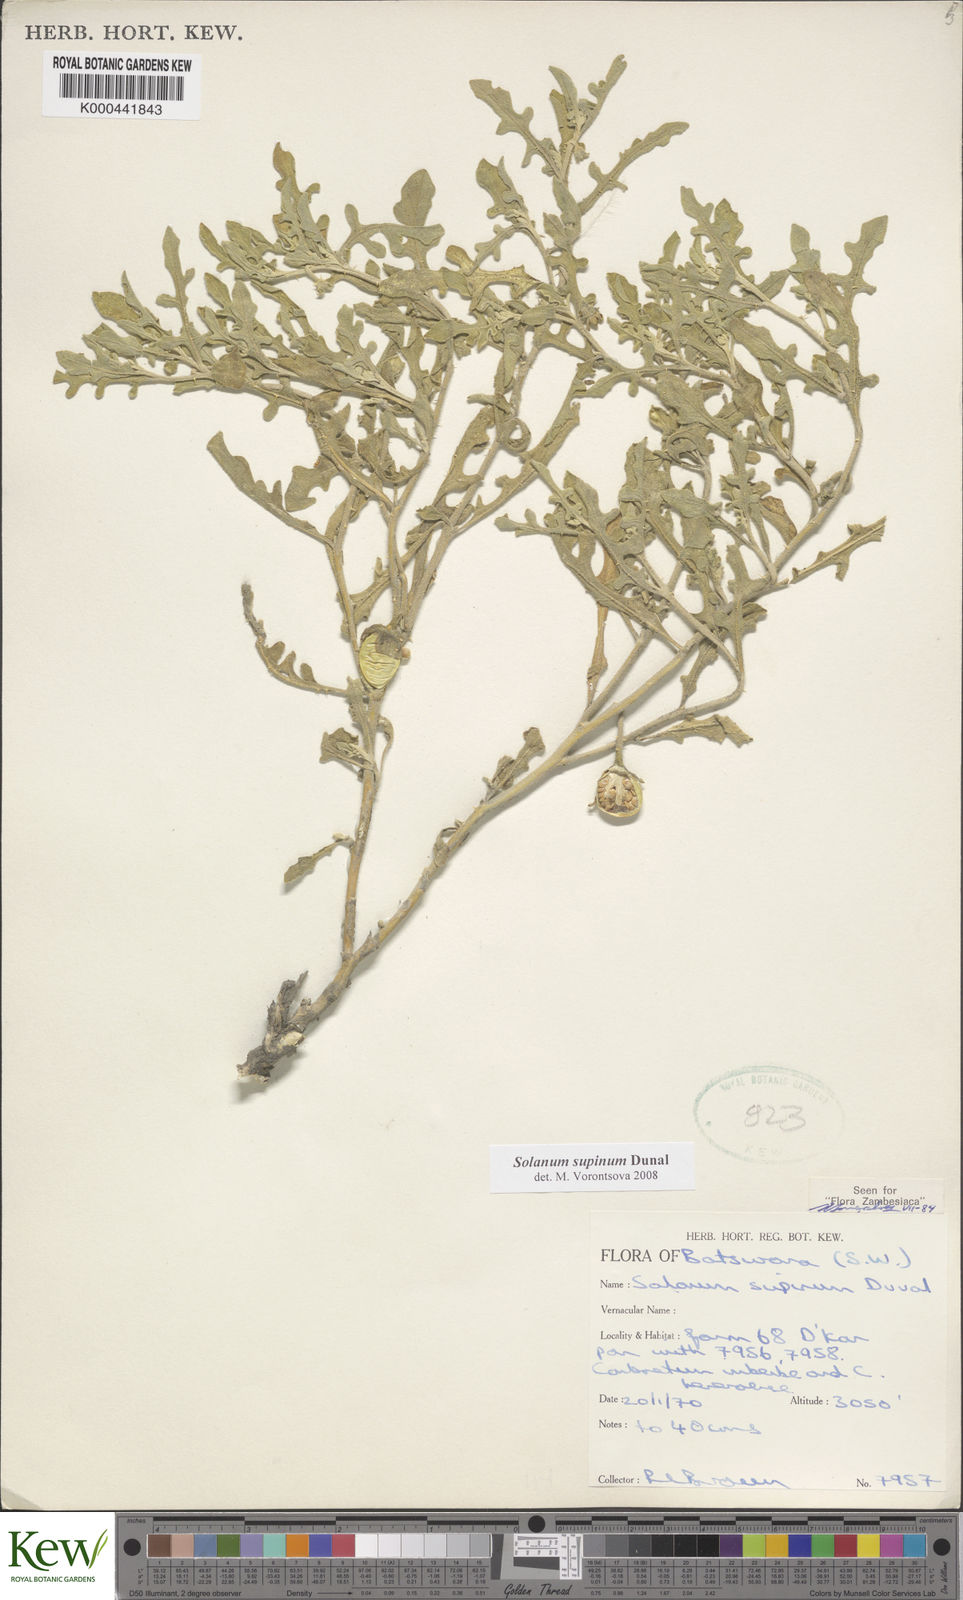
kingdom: Plantae
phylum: Tracheophyta
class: Magnoliopsida
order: Solanales
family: Solanaceae
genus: Solanum
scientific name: Solanum supinum
